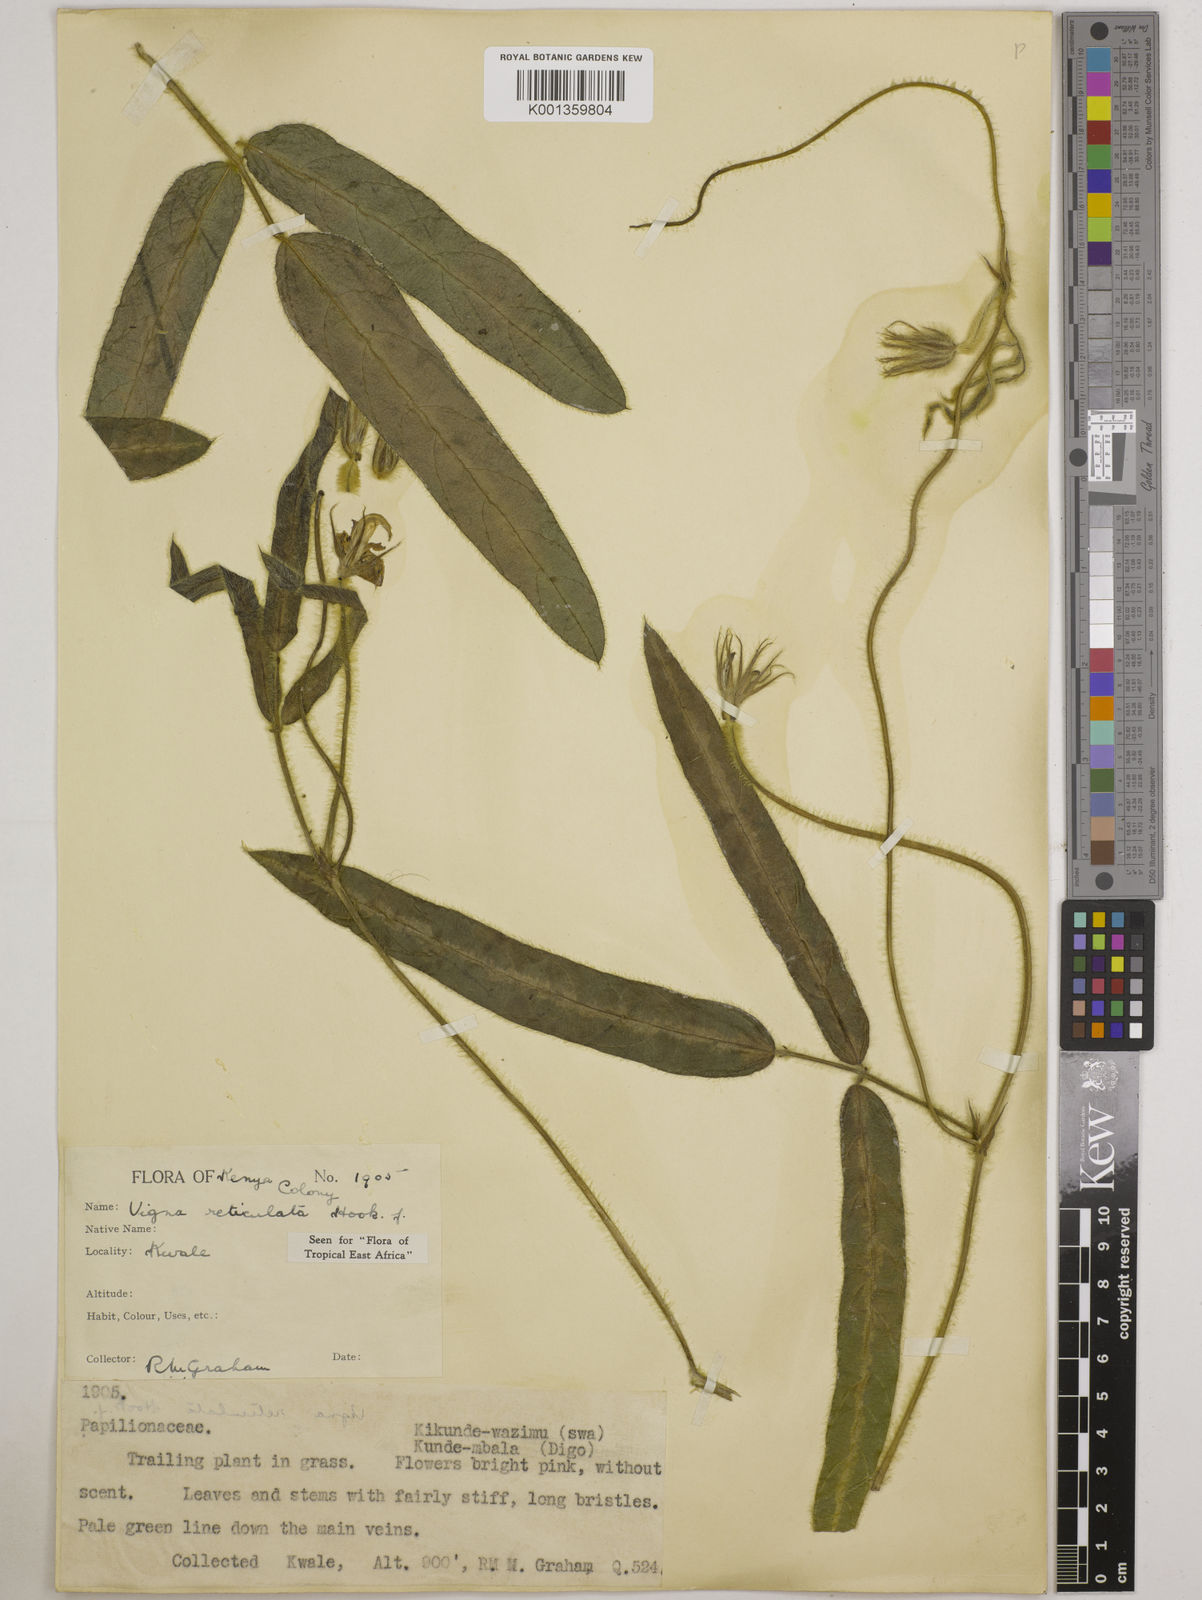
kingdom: Plantae
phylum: Tracheophyta
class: Magnoliopsida
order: Fabales
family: Fabaceae
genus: Vigna
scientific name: Vigna reticulata
